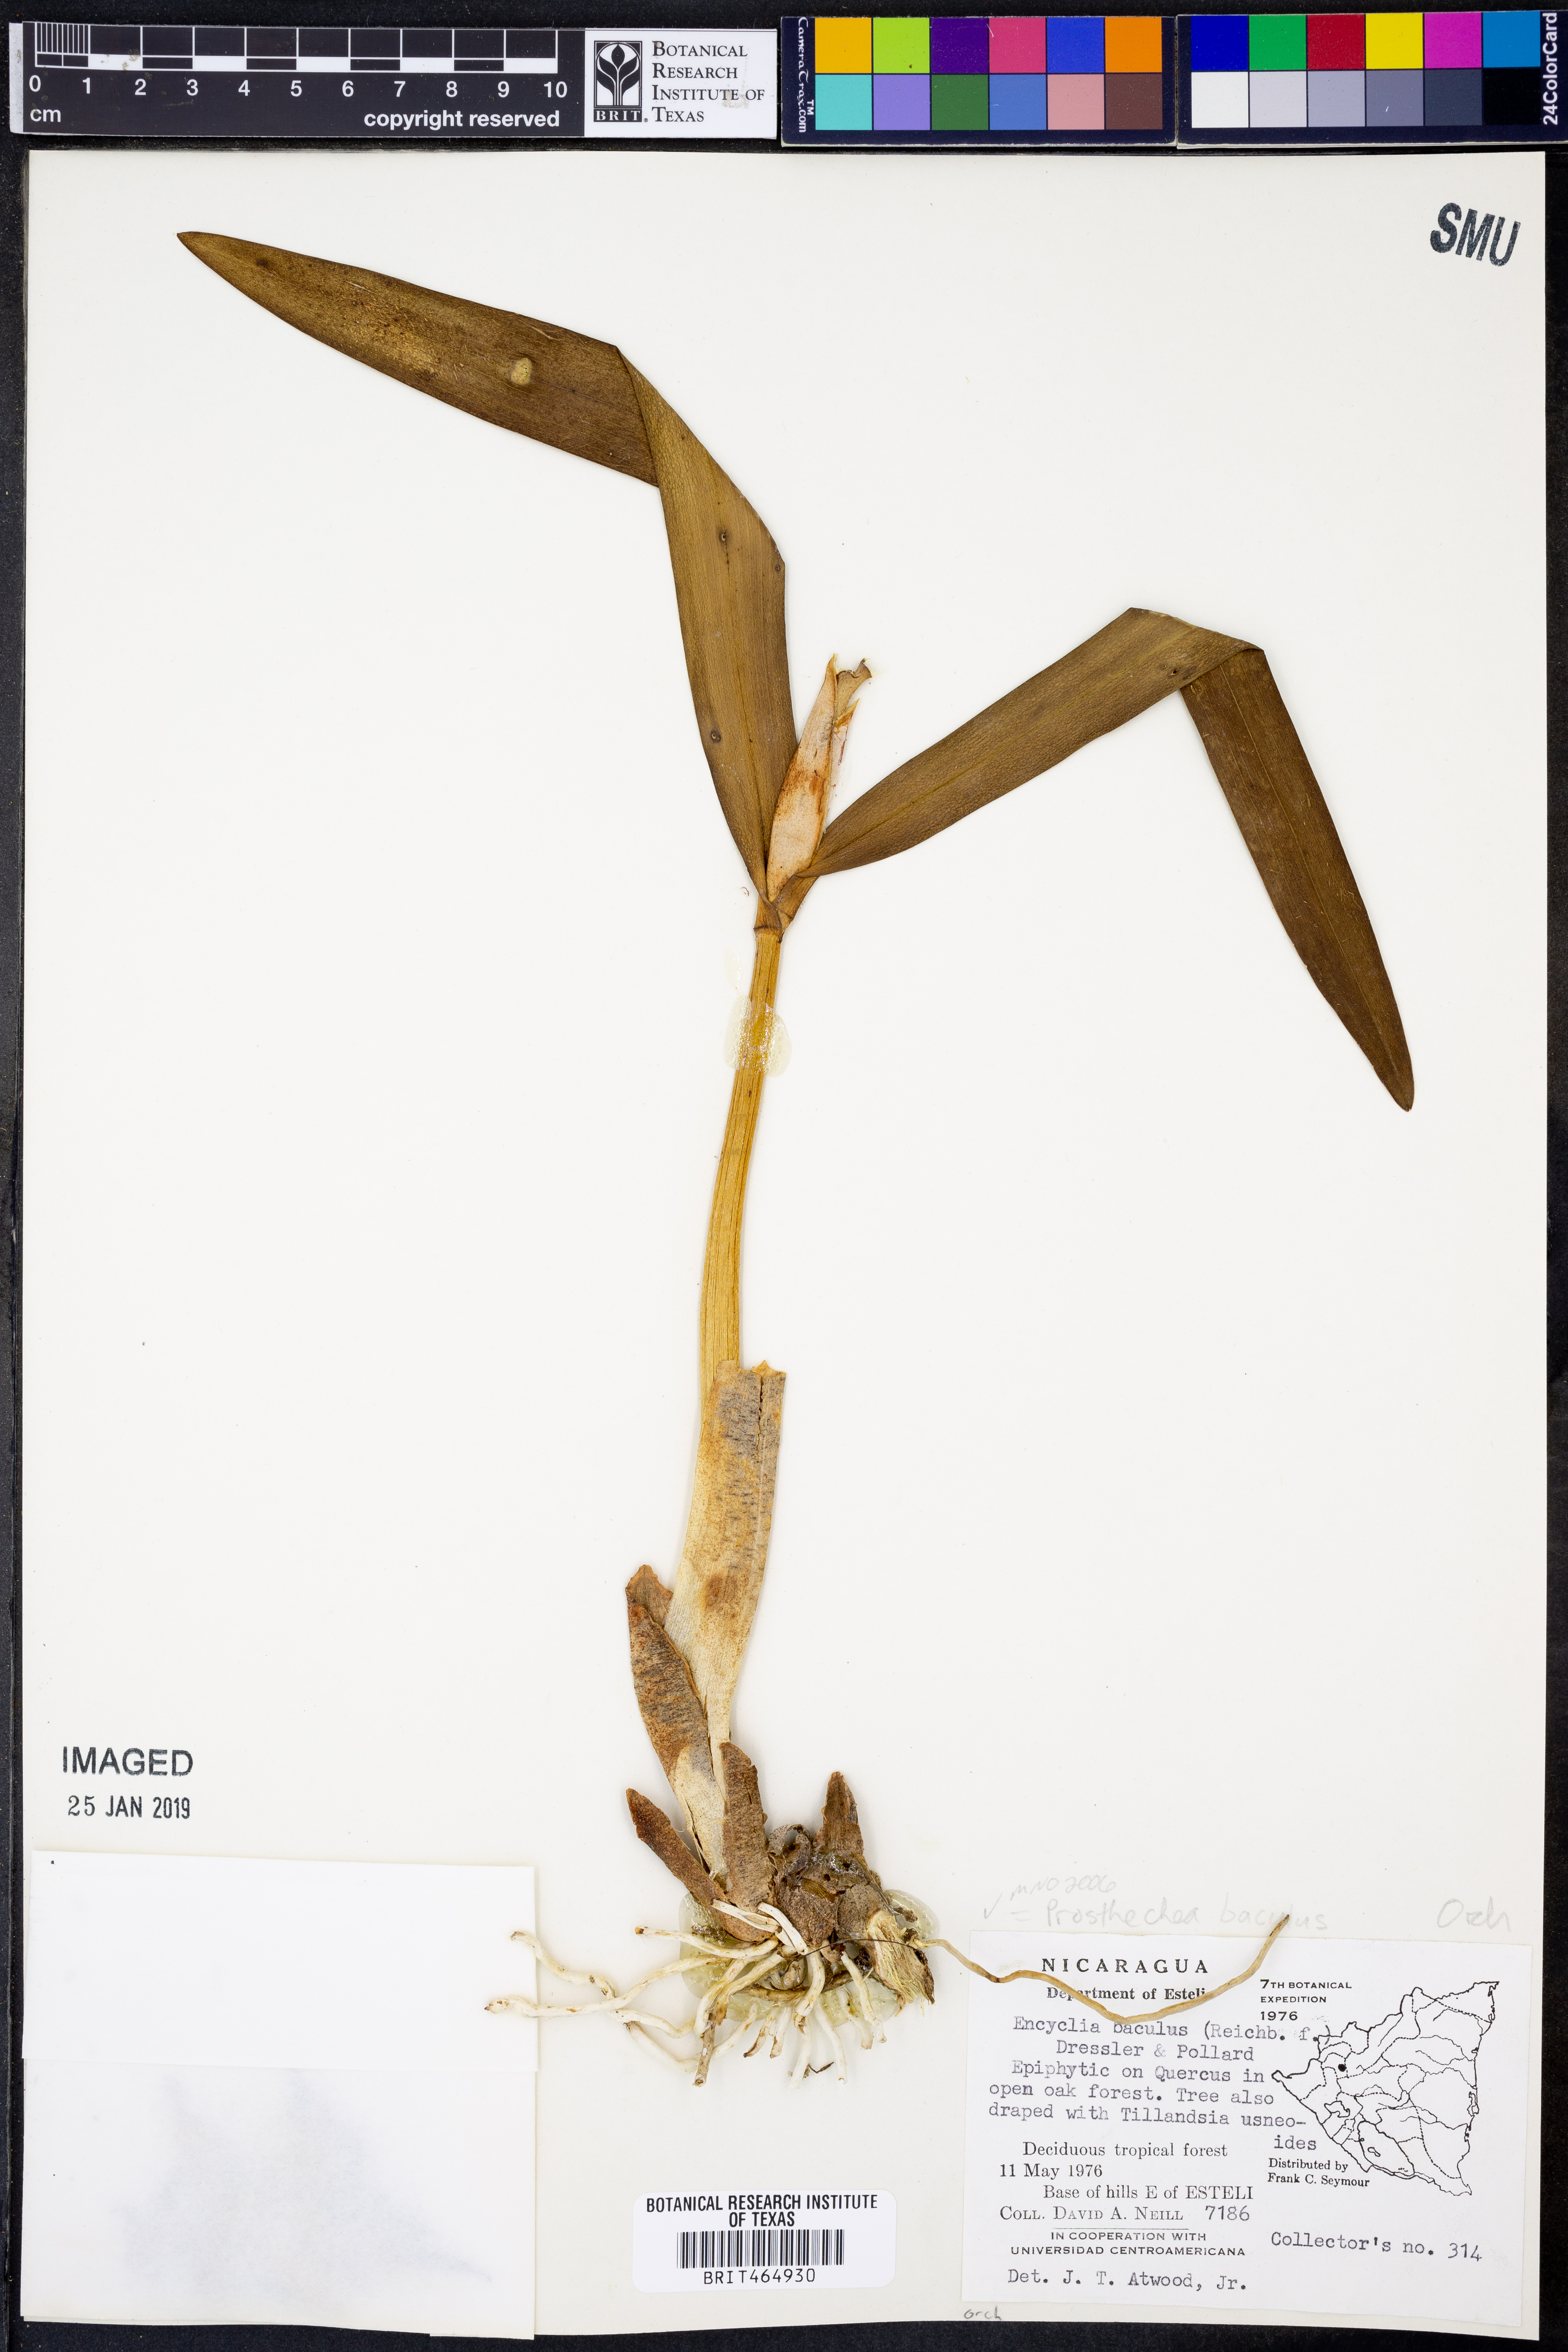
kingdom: Plantae
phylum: Tracheophyta
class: Liliopsida
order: Asparagales
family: Orchidaceae
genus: Prosthechea
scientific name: Prosthechea baculus
